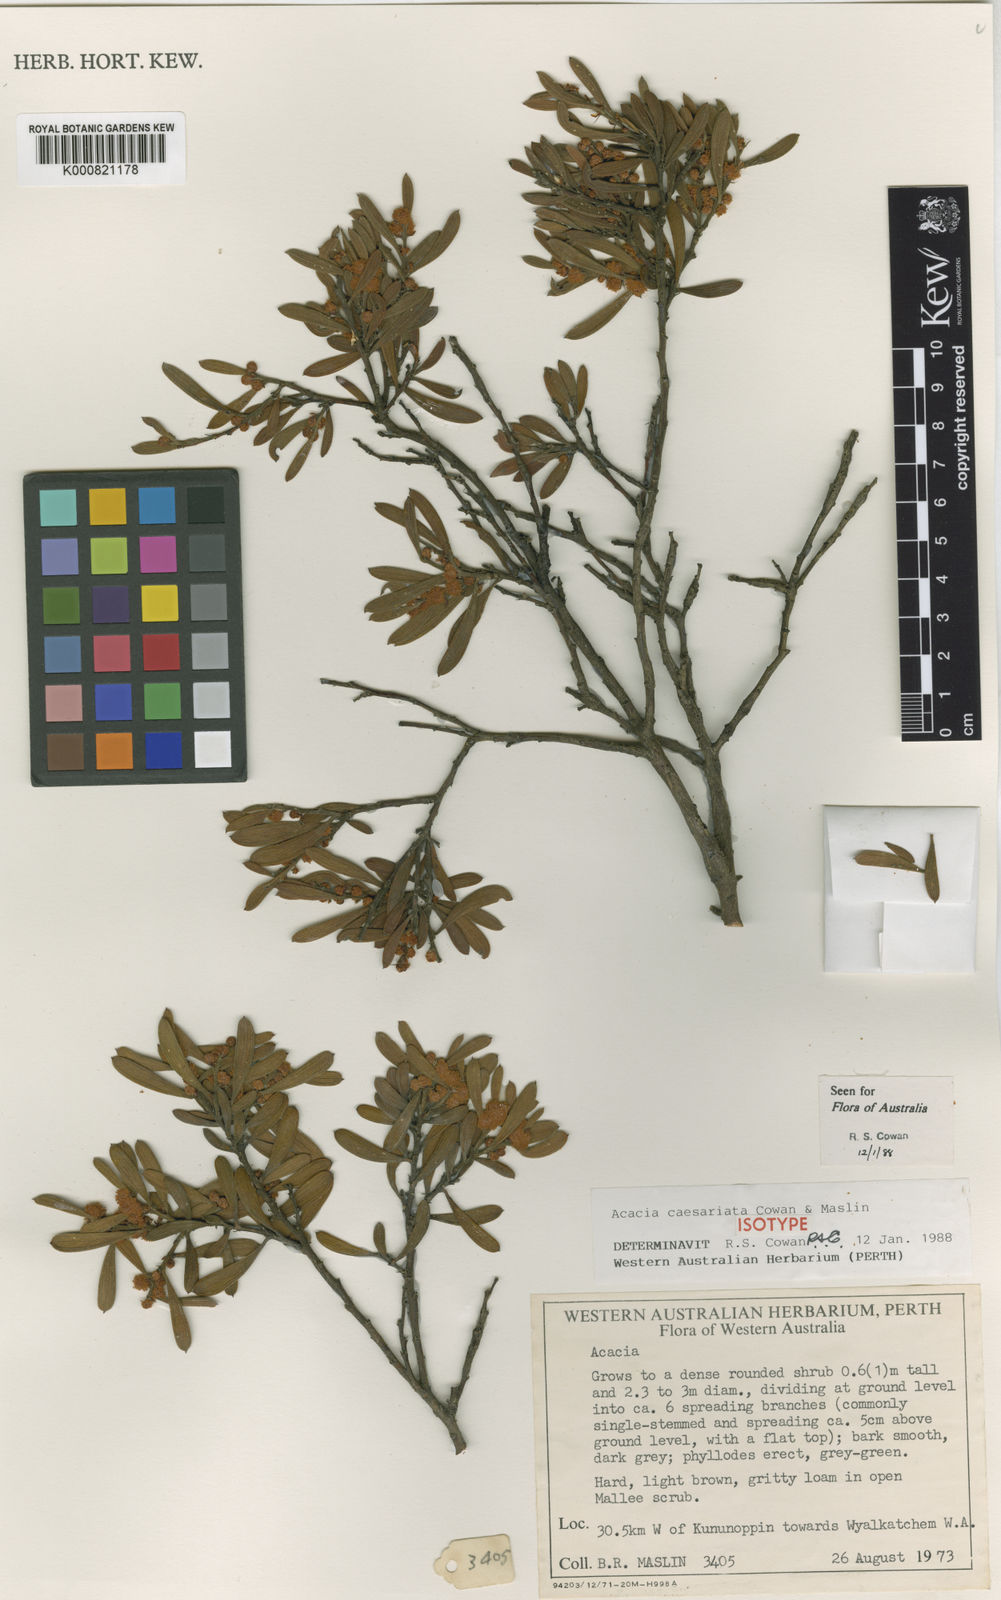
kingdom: Plantae
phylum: Tracheophyta
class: Magnoliopsida
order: Fabales
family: Fabaceae
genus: Acacia
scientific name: Acacia caesariata
